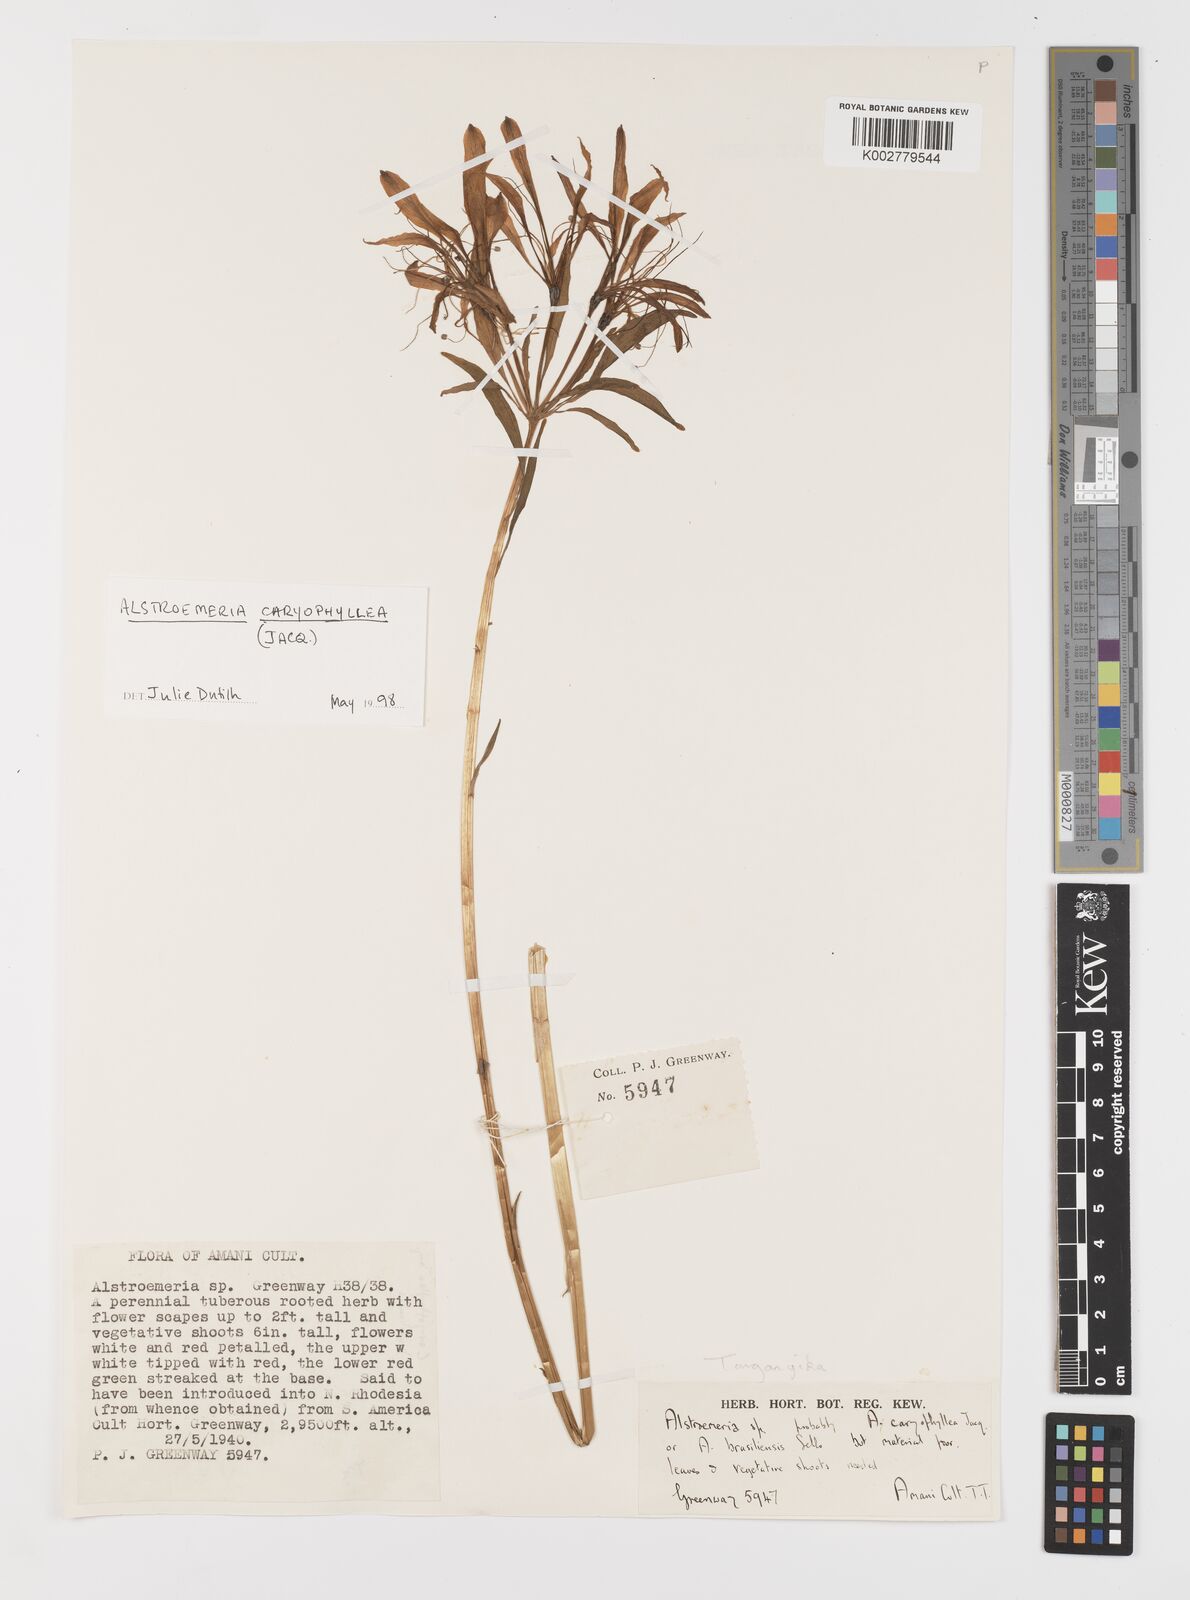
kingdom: Plantae
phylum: Tracheophyta
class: Liliopsida
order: Liliales
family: Alstroemeriaceae
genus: Alstroemeria
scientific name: Alstroemeria
